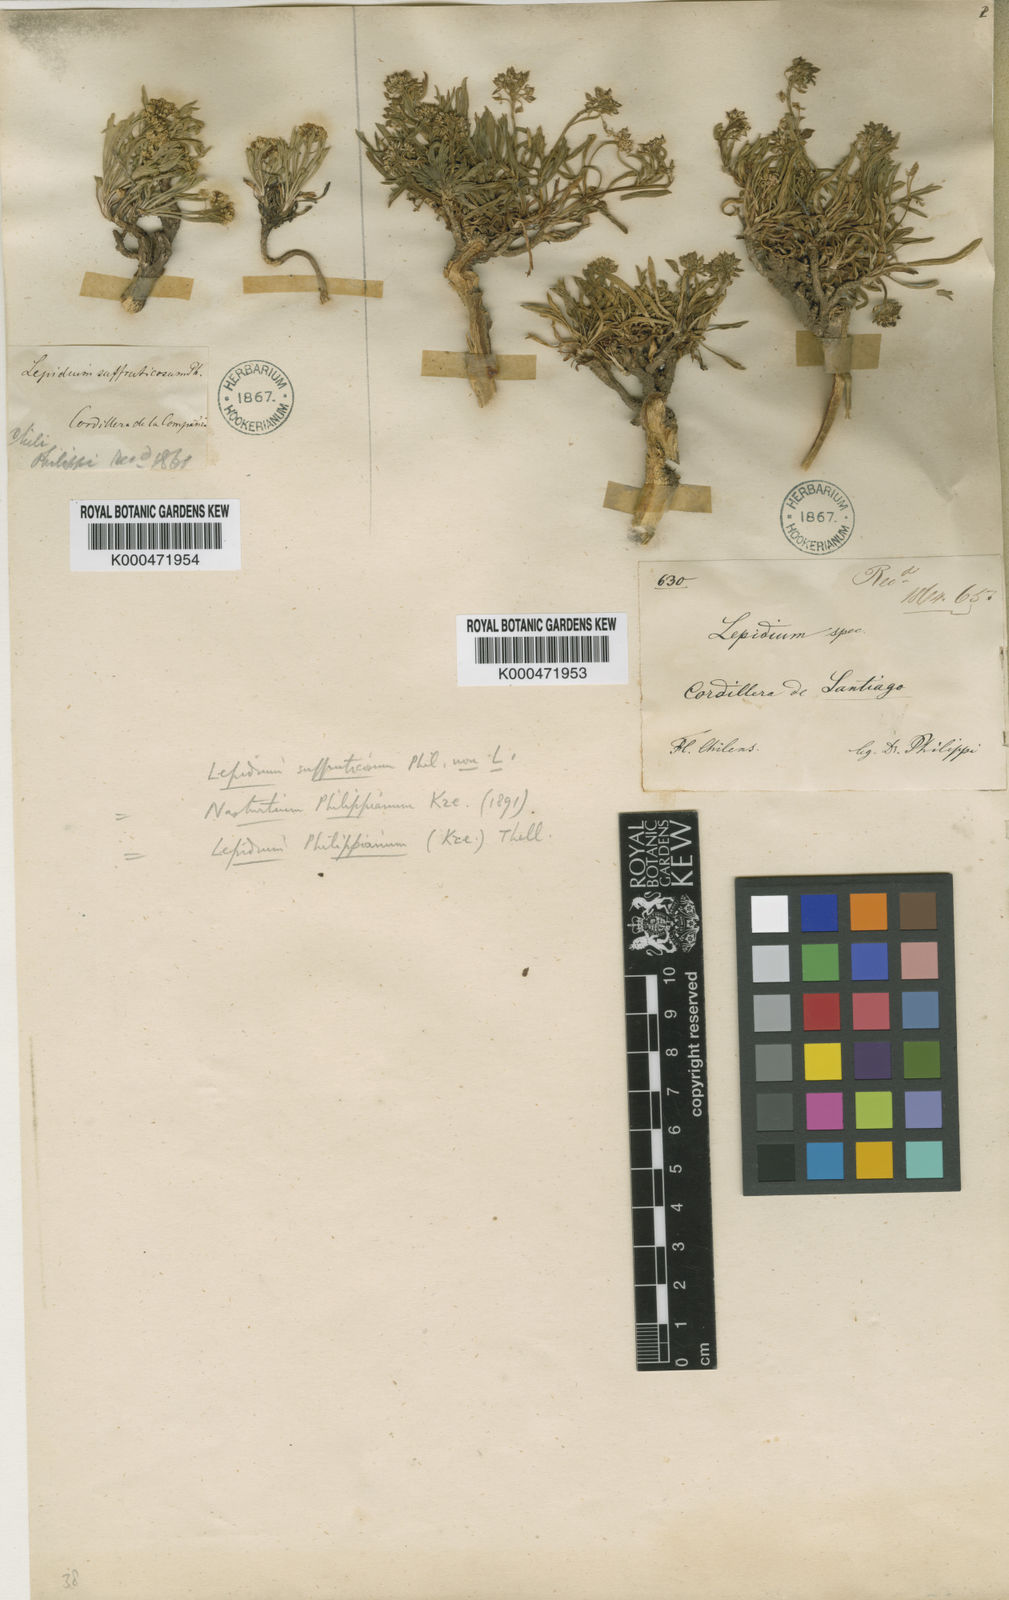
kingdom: Plantae
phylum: Tracheophyta
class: Magnoliopsida
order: Brassicales
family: Brassicaceae
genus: Lepidium
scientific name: Lepidium philippianum
